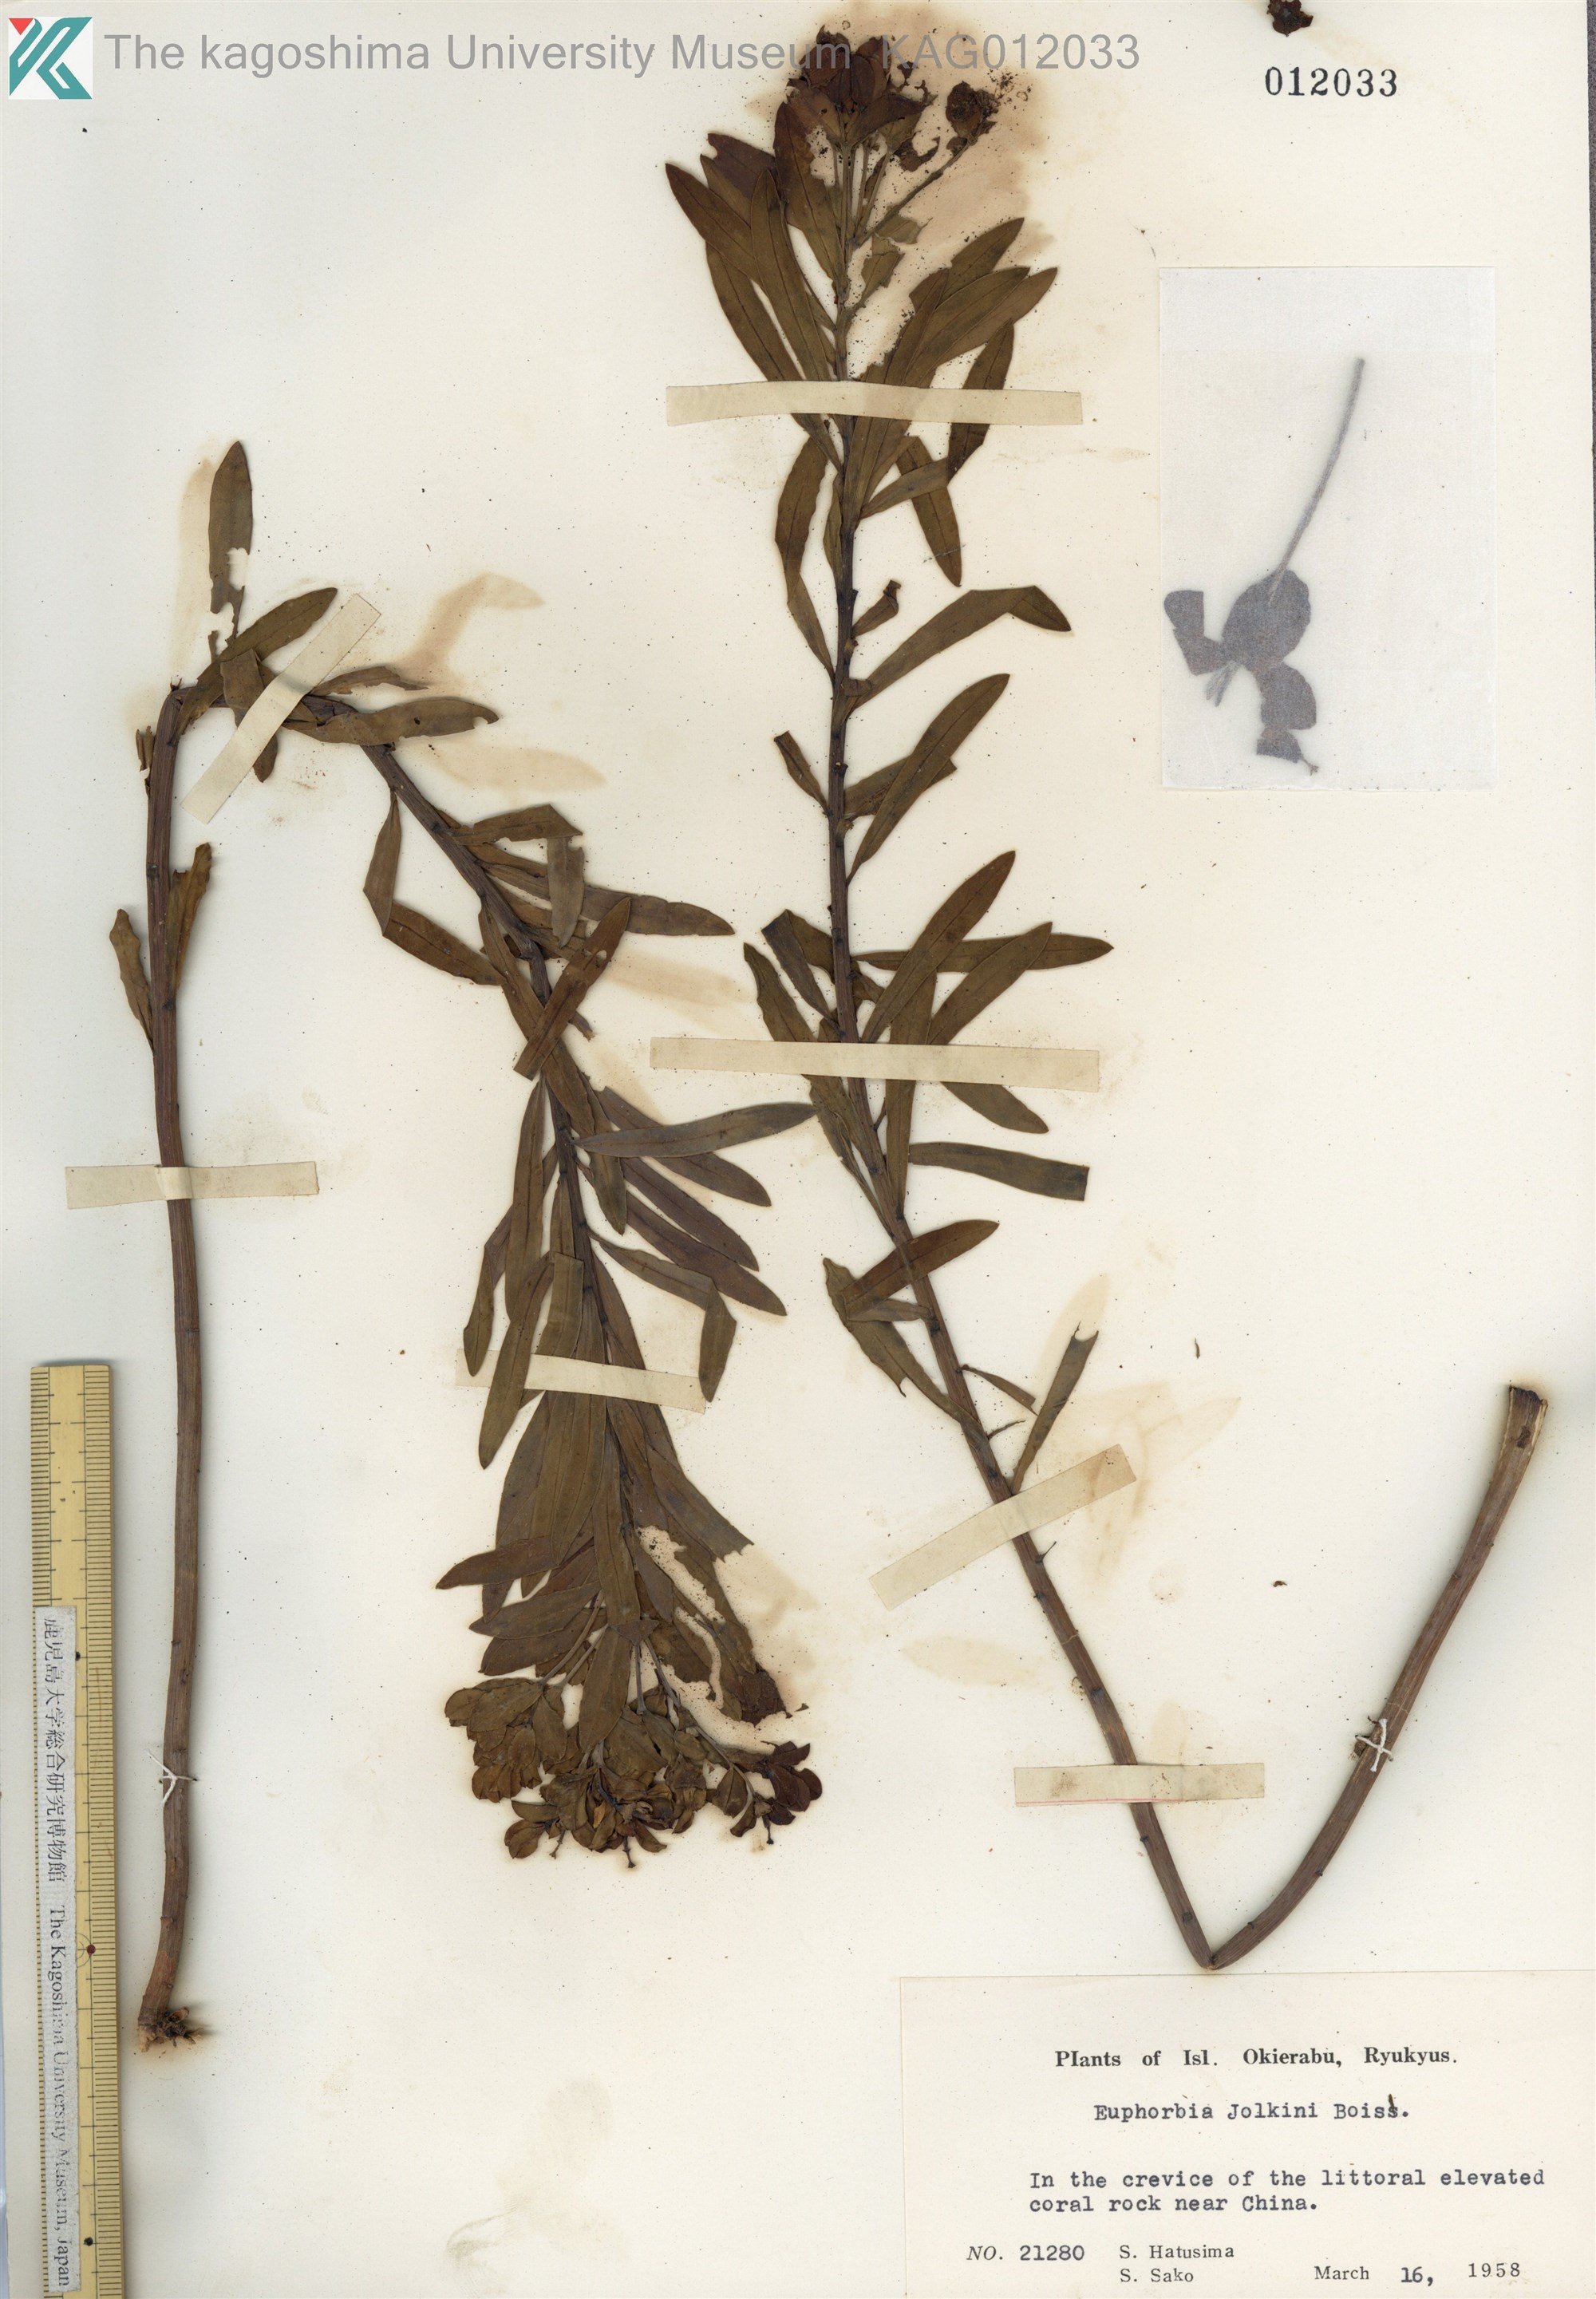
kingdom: Plantae
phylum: Tracheophyta
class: Magnoliopsida
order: Malpighiales
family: Euphorbiaceae
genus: Euphorbia
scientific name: Euphorbia jolkinii
